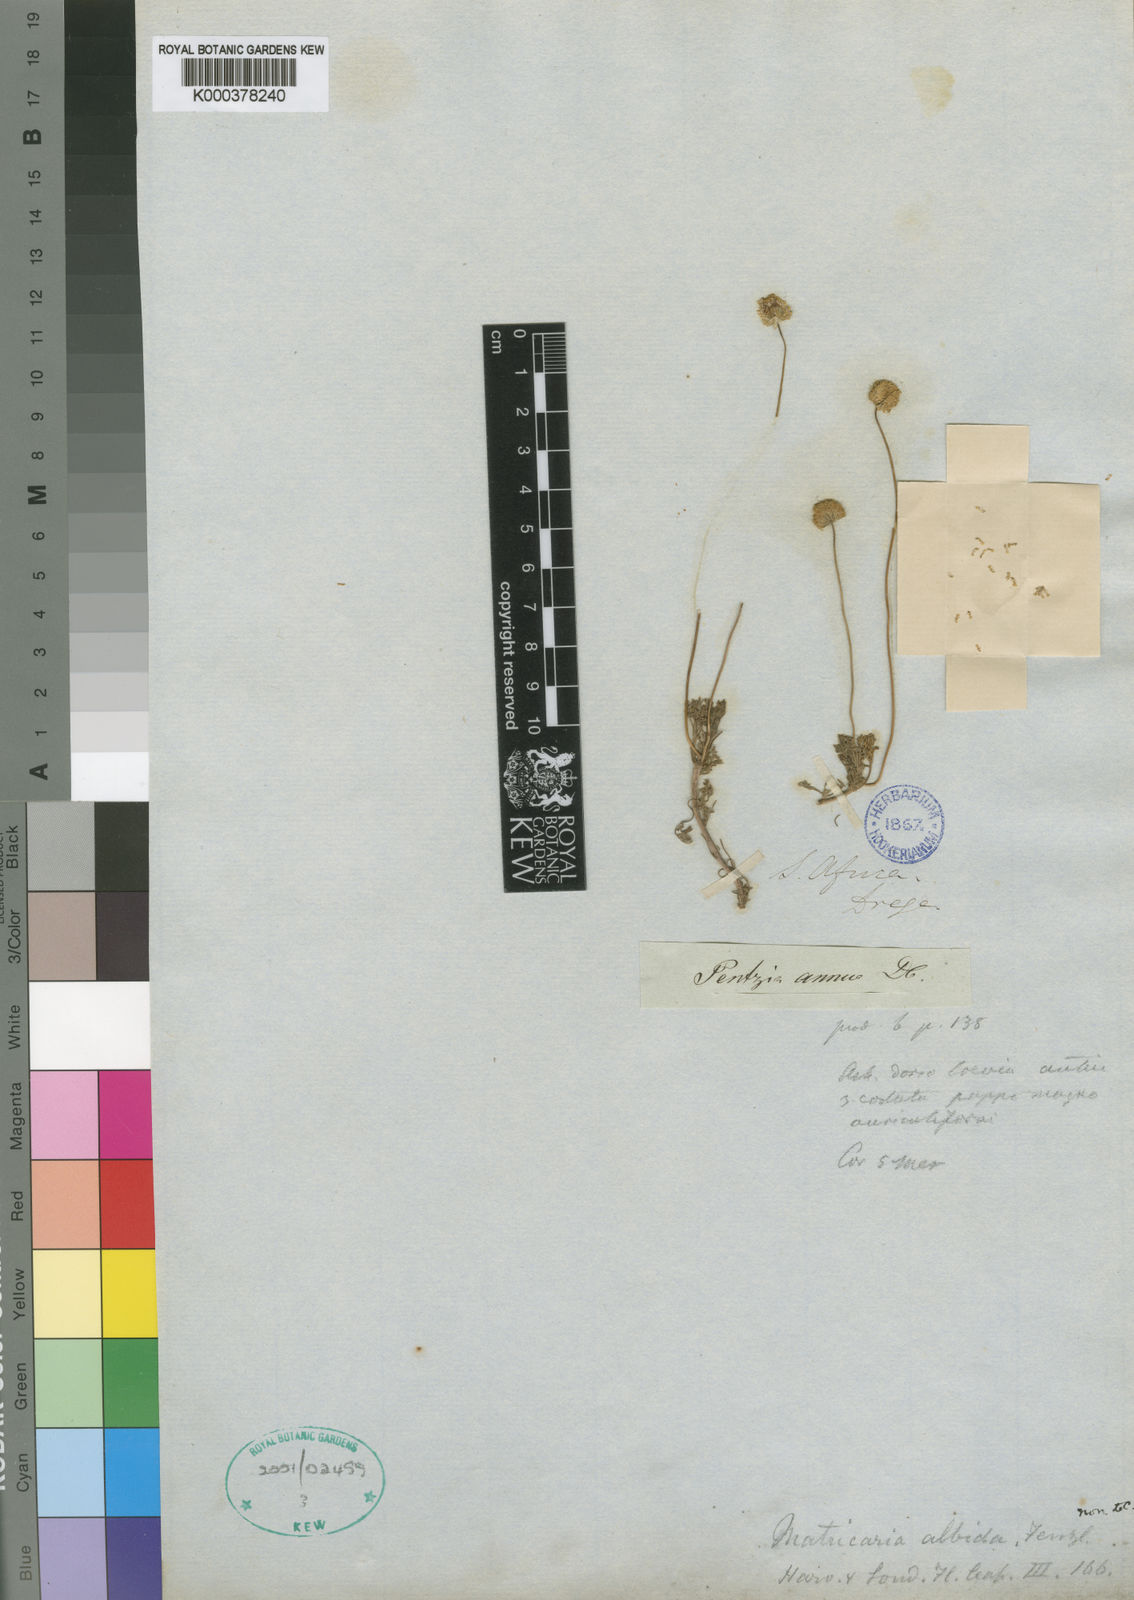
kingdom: Plantae
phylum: Tracheophyta
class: Magnoliopsida
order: Asterales
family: Asteraceae
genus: Foveolina
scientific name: Foveolina
